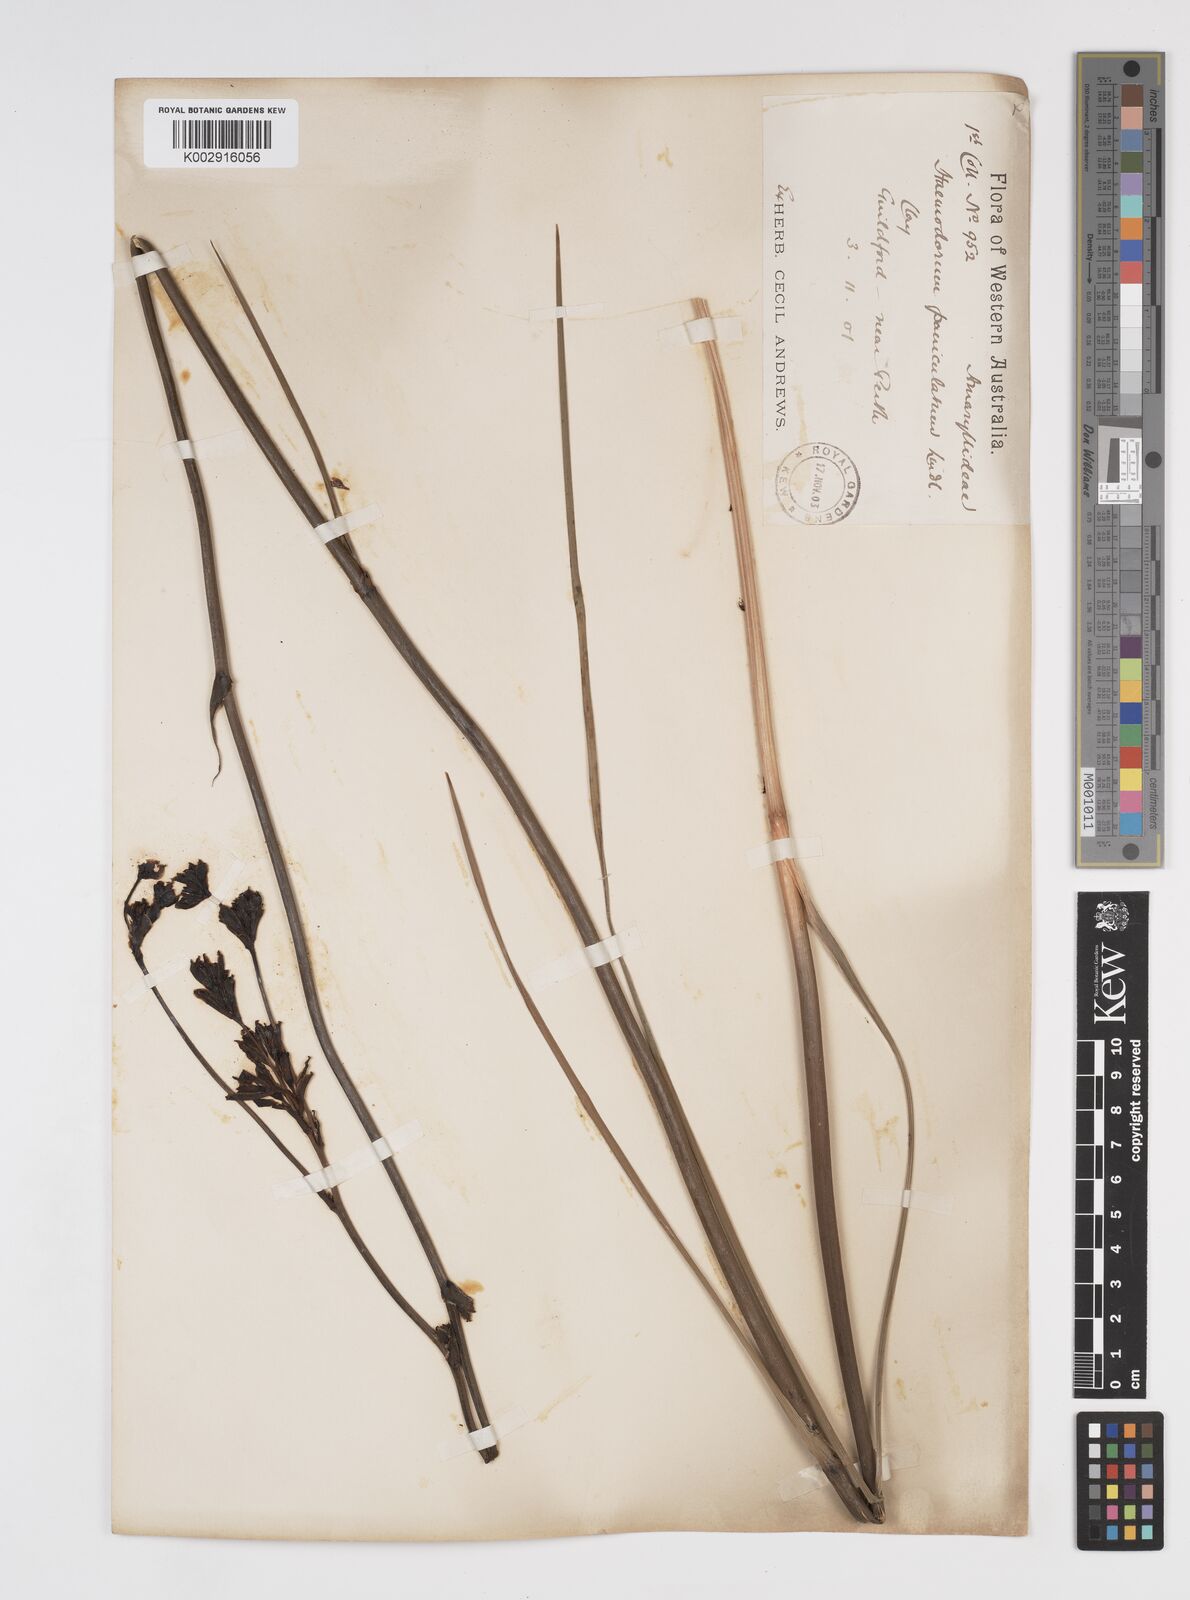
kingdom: Plantae
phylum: Tracheophyta
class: Liliopsida
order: Commelinales
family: Haemodoraceae
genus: Haemodorum
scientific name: Haemodorum paniculatum
